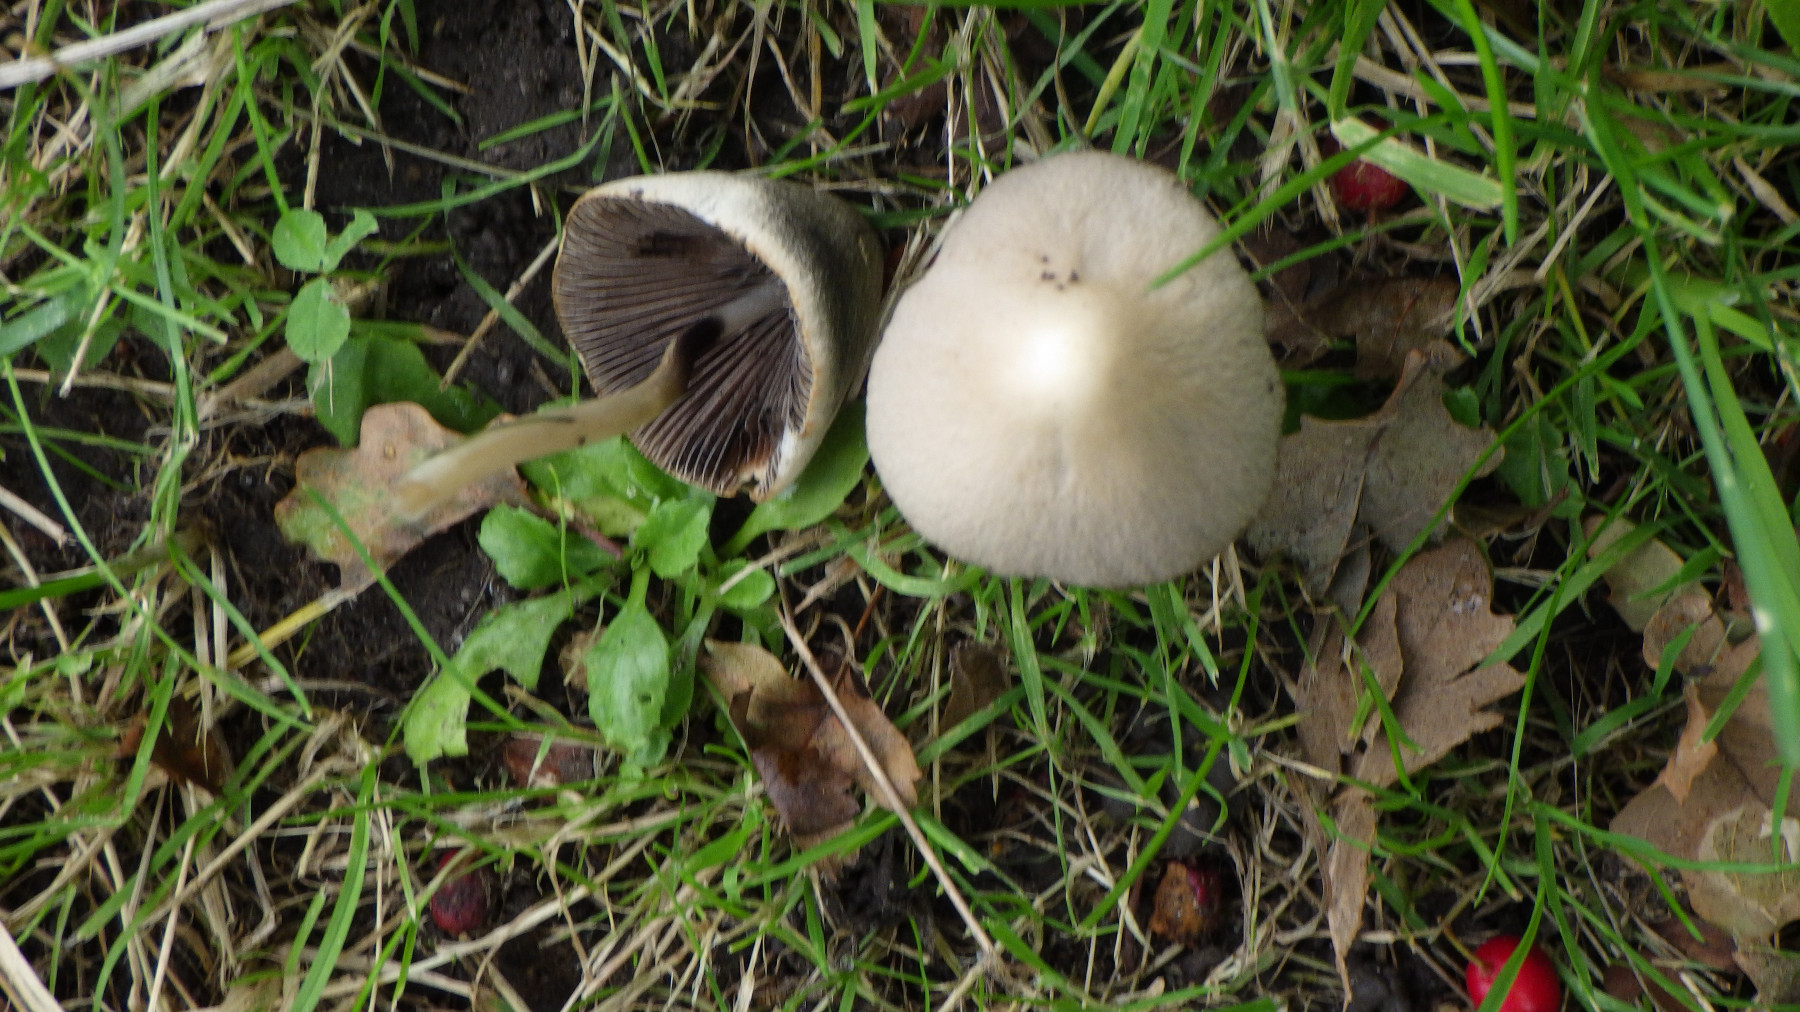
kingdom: Fungi
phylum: Basidiomycota
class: Agaricomycetes
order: Agaricales
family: Psathyrellaceae
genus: Parasola
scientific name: Parasola conopilea
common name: kegle-hjulhat
